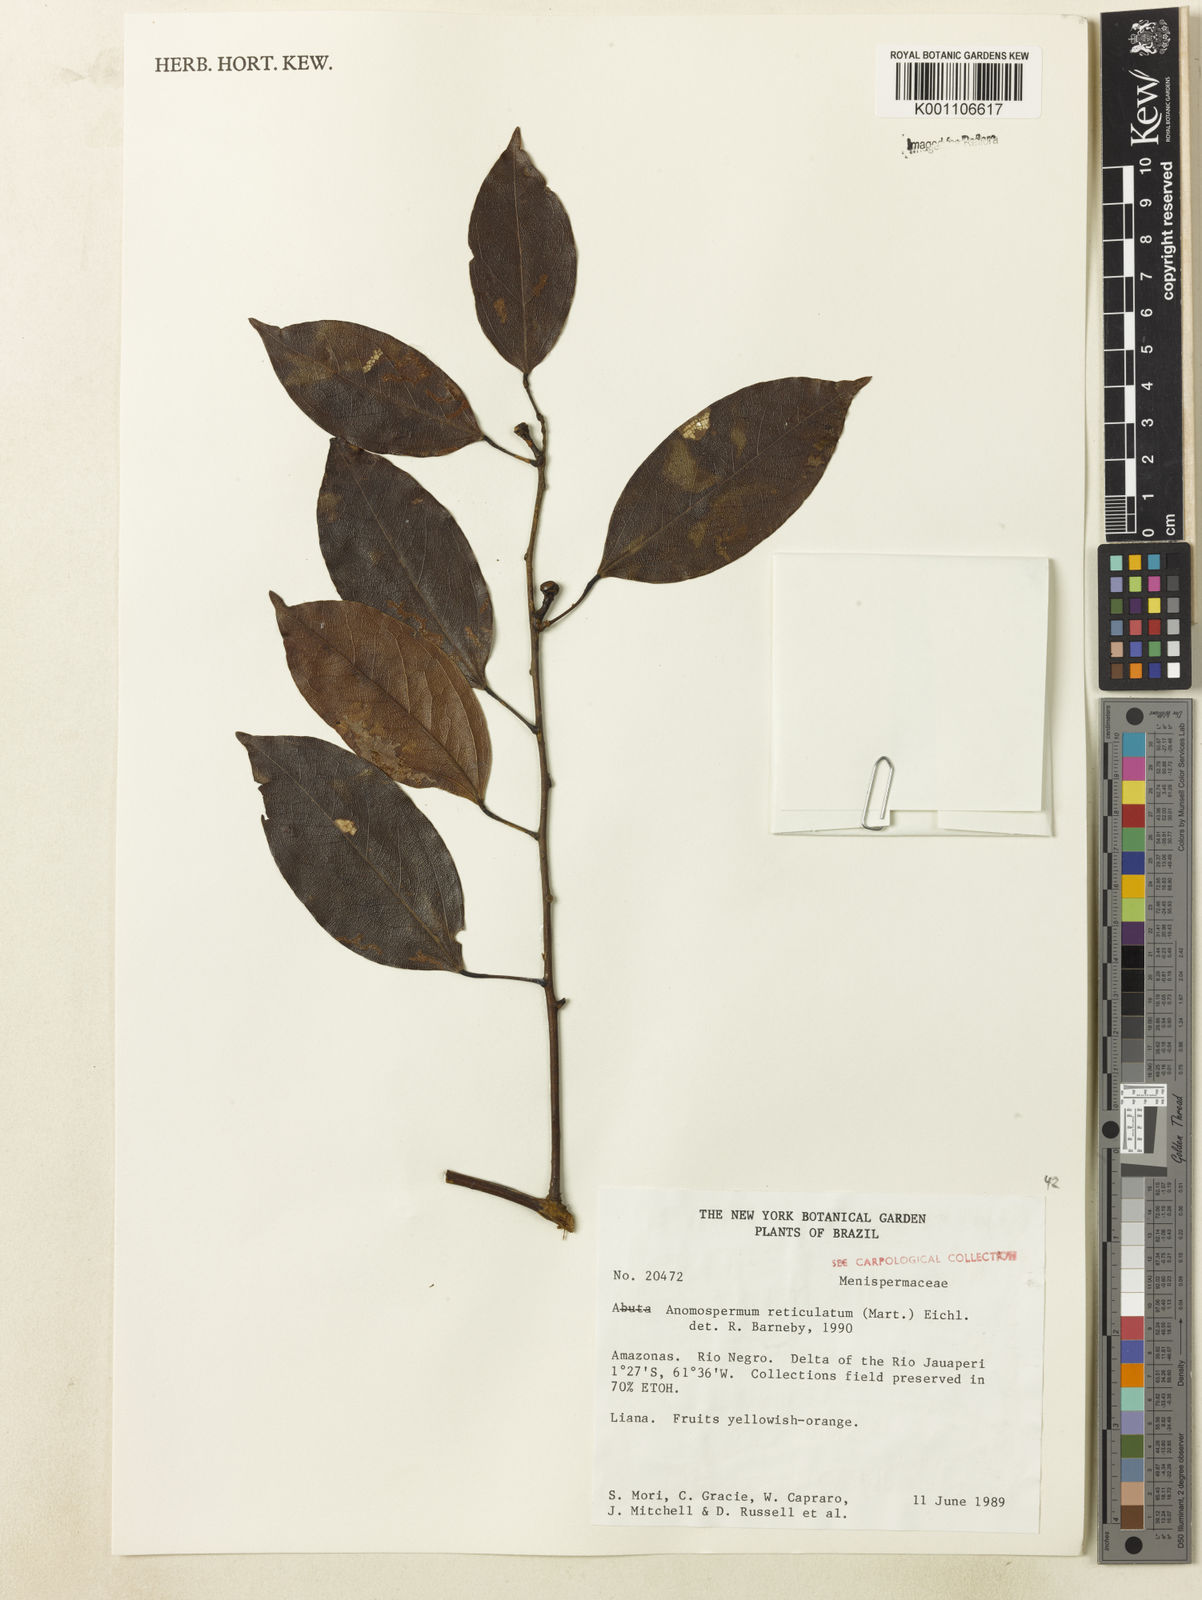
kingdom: Plantae
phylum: Tracheophyta
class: Magnoliopsida
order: Ranunculales
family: Menispermaceae
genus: Anomospermum
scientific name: Anomospermum reticulatum
